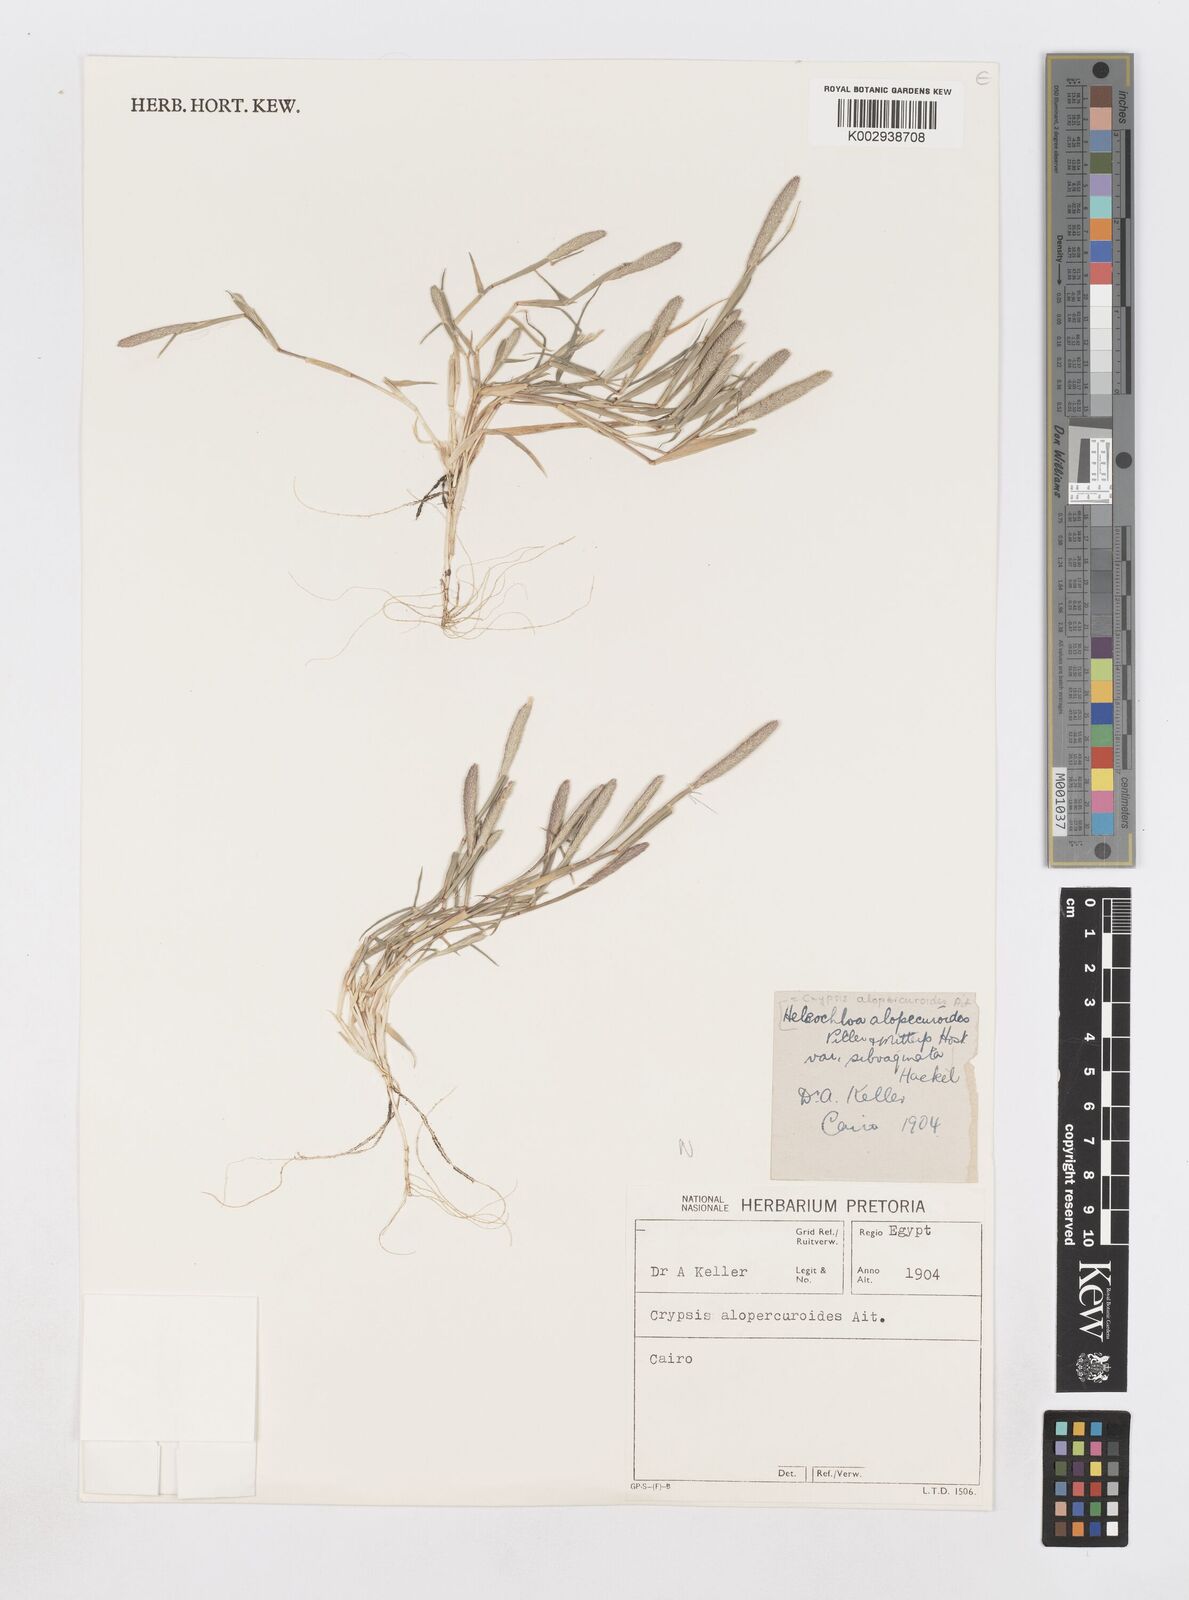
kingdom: Plantae
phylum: Tracheophyta
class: Liliopsida
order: Poales
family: Poaceae
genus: Sporobolus
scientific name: Sporobolus alopecuroides
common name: Foxtail pricklegrass
